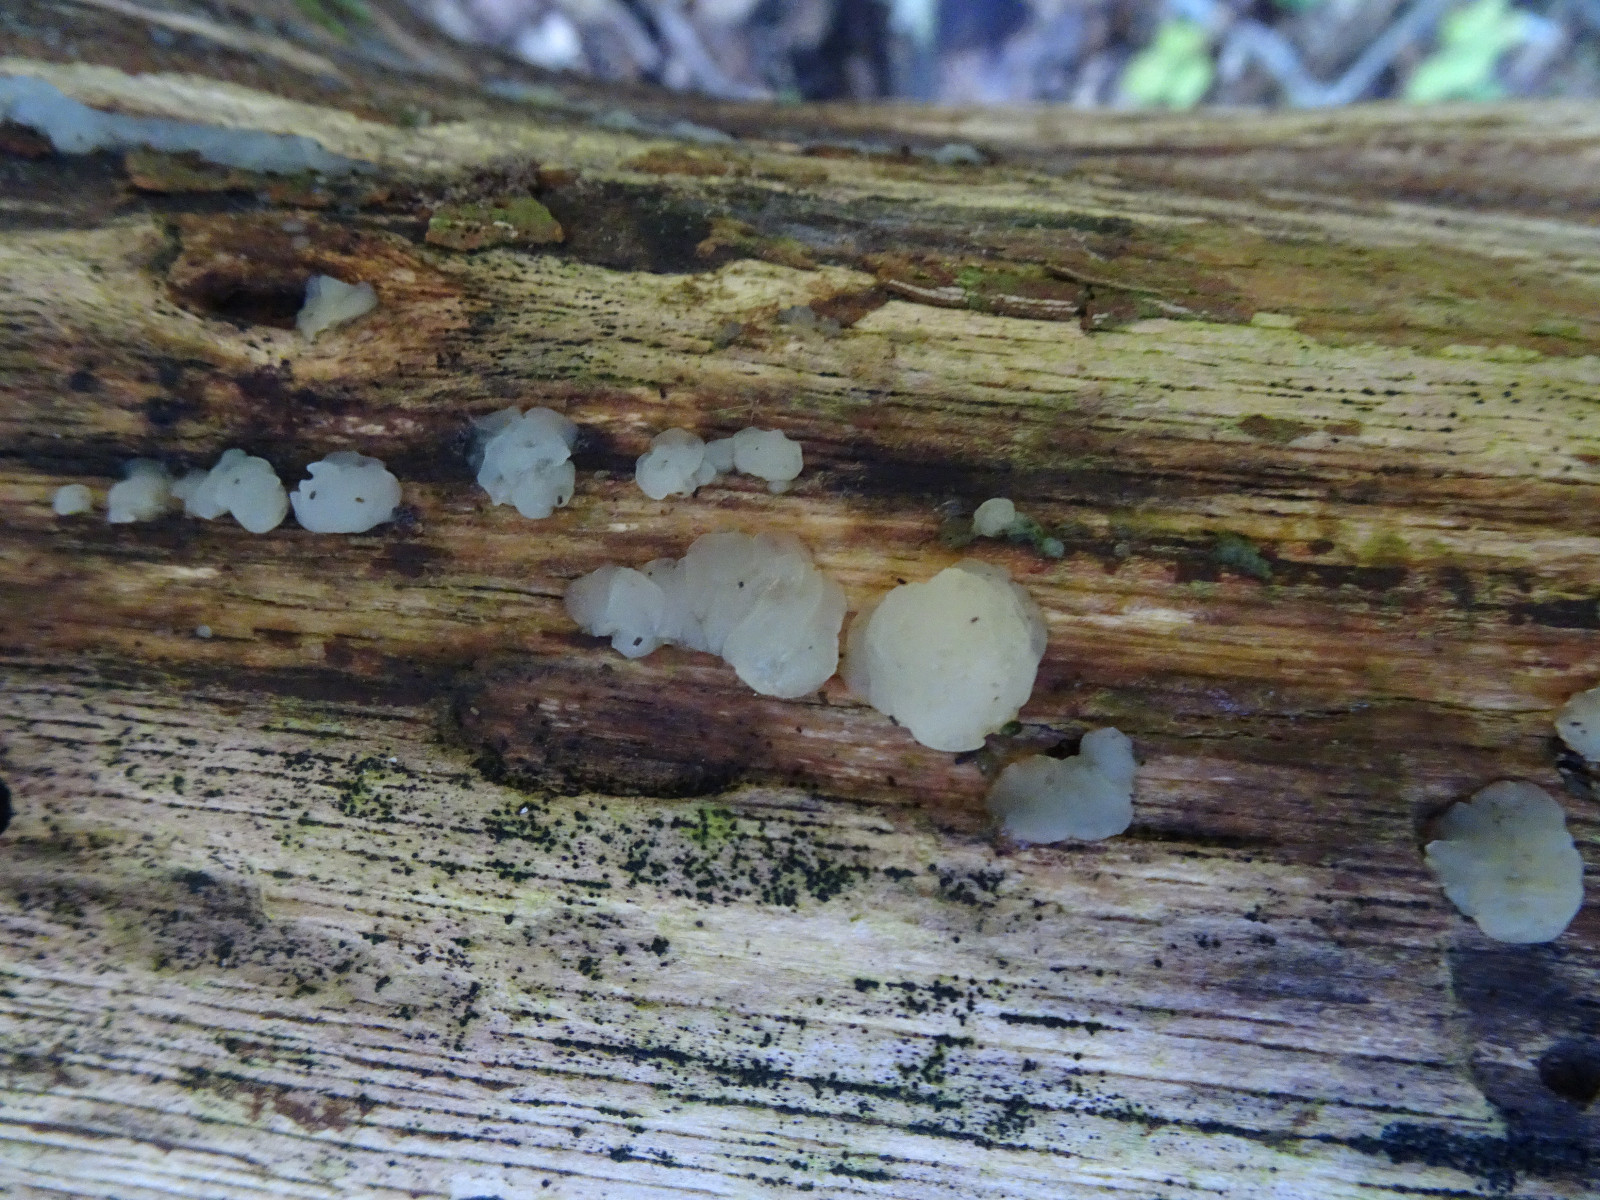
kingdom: Fungi
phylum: Basidiomycota
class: Agaricomycetes
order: Auriculariales
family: Auriculariaceae
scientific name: Auriculariaceae
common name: judasørefamilien
